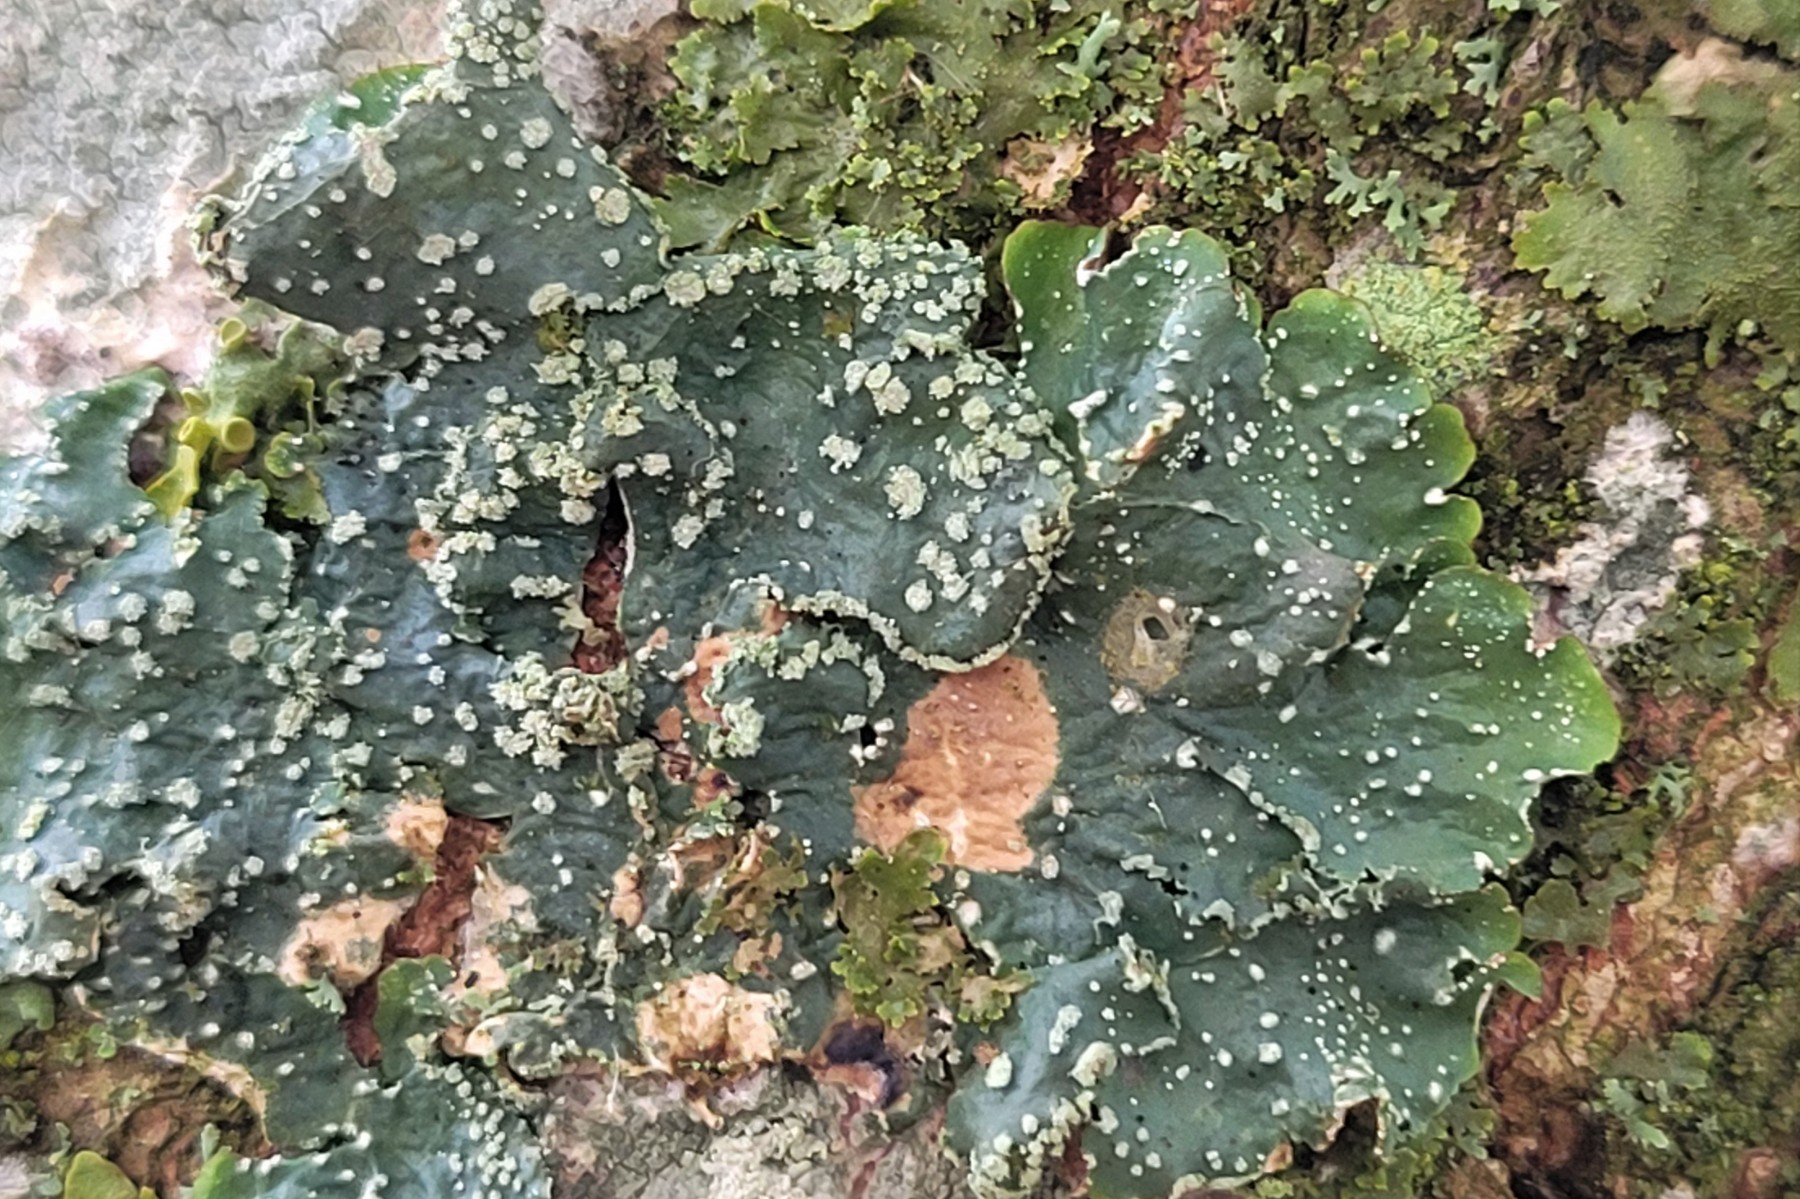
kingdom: Fungi
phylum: Ascomycota
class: Lecanoromycetes
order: Lecanorales
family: Parmeliaceae
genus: Punctelia
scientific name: Punctelia subrudecta
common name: punkt-skållav
